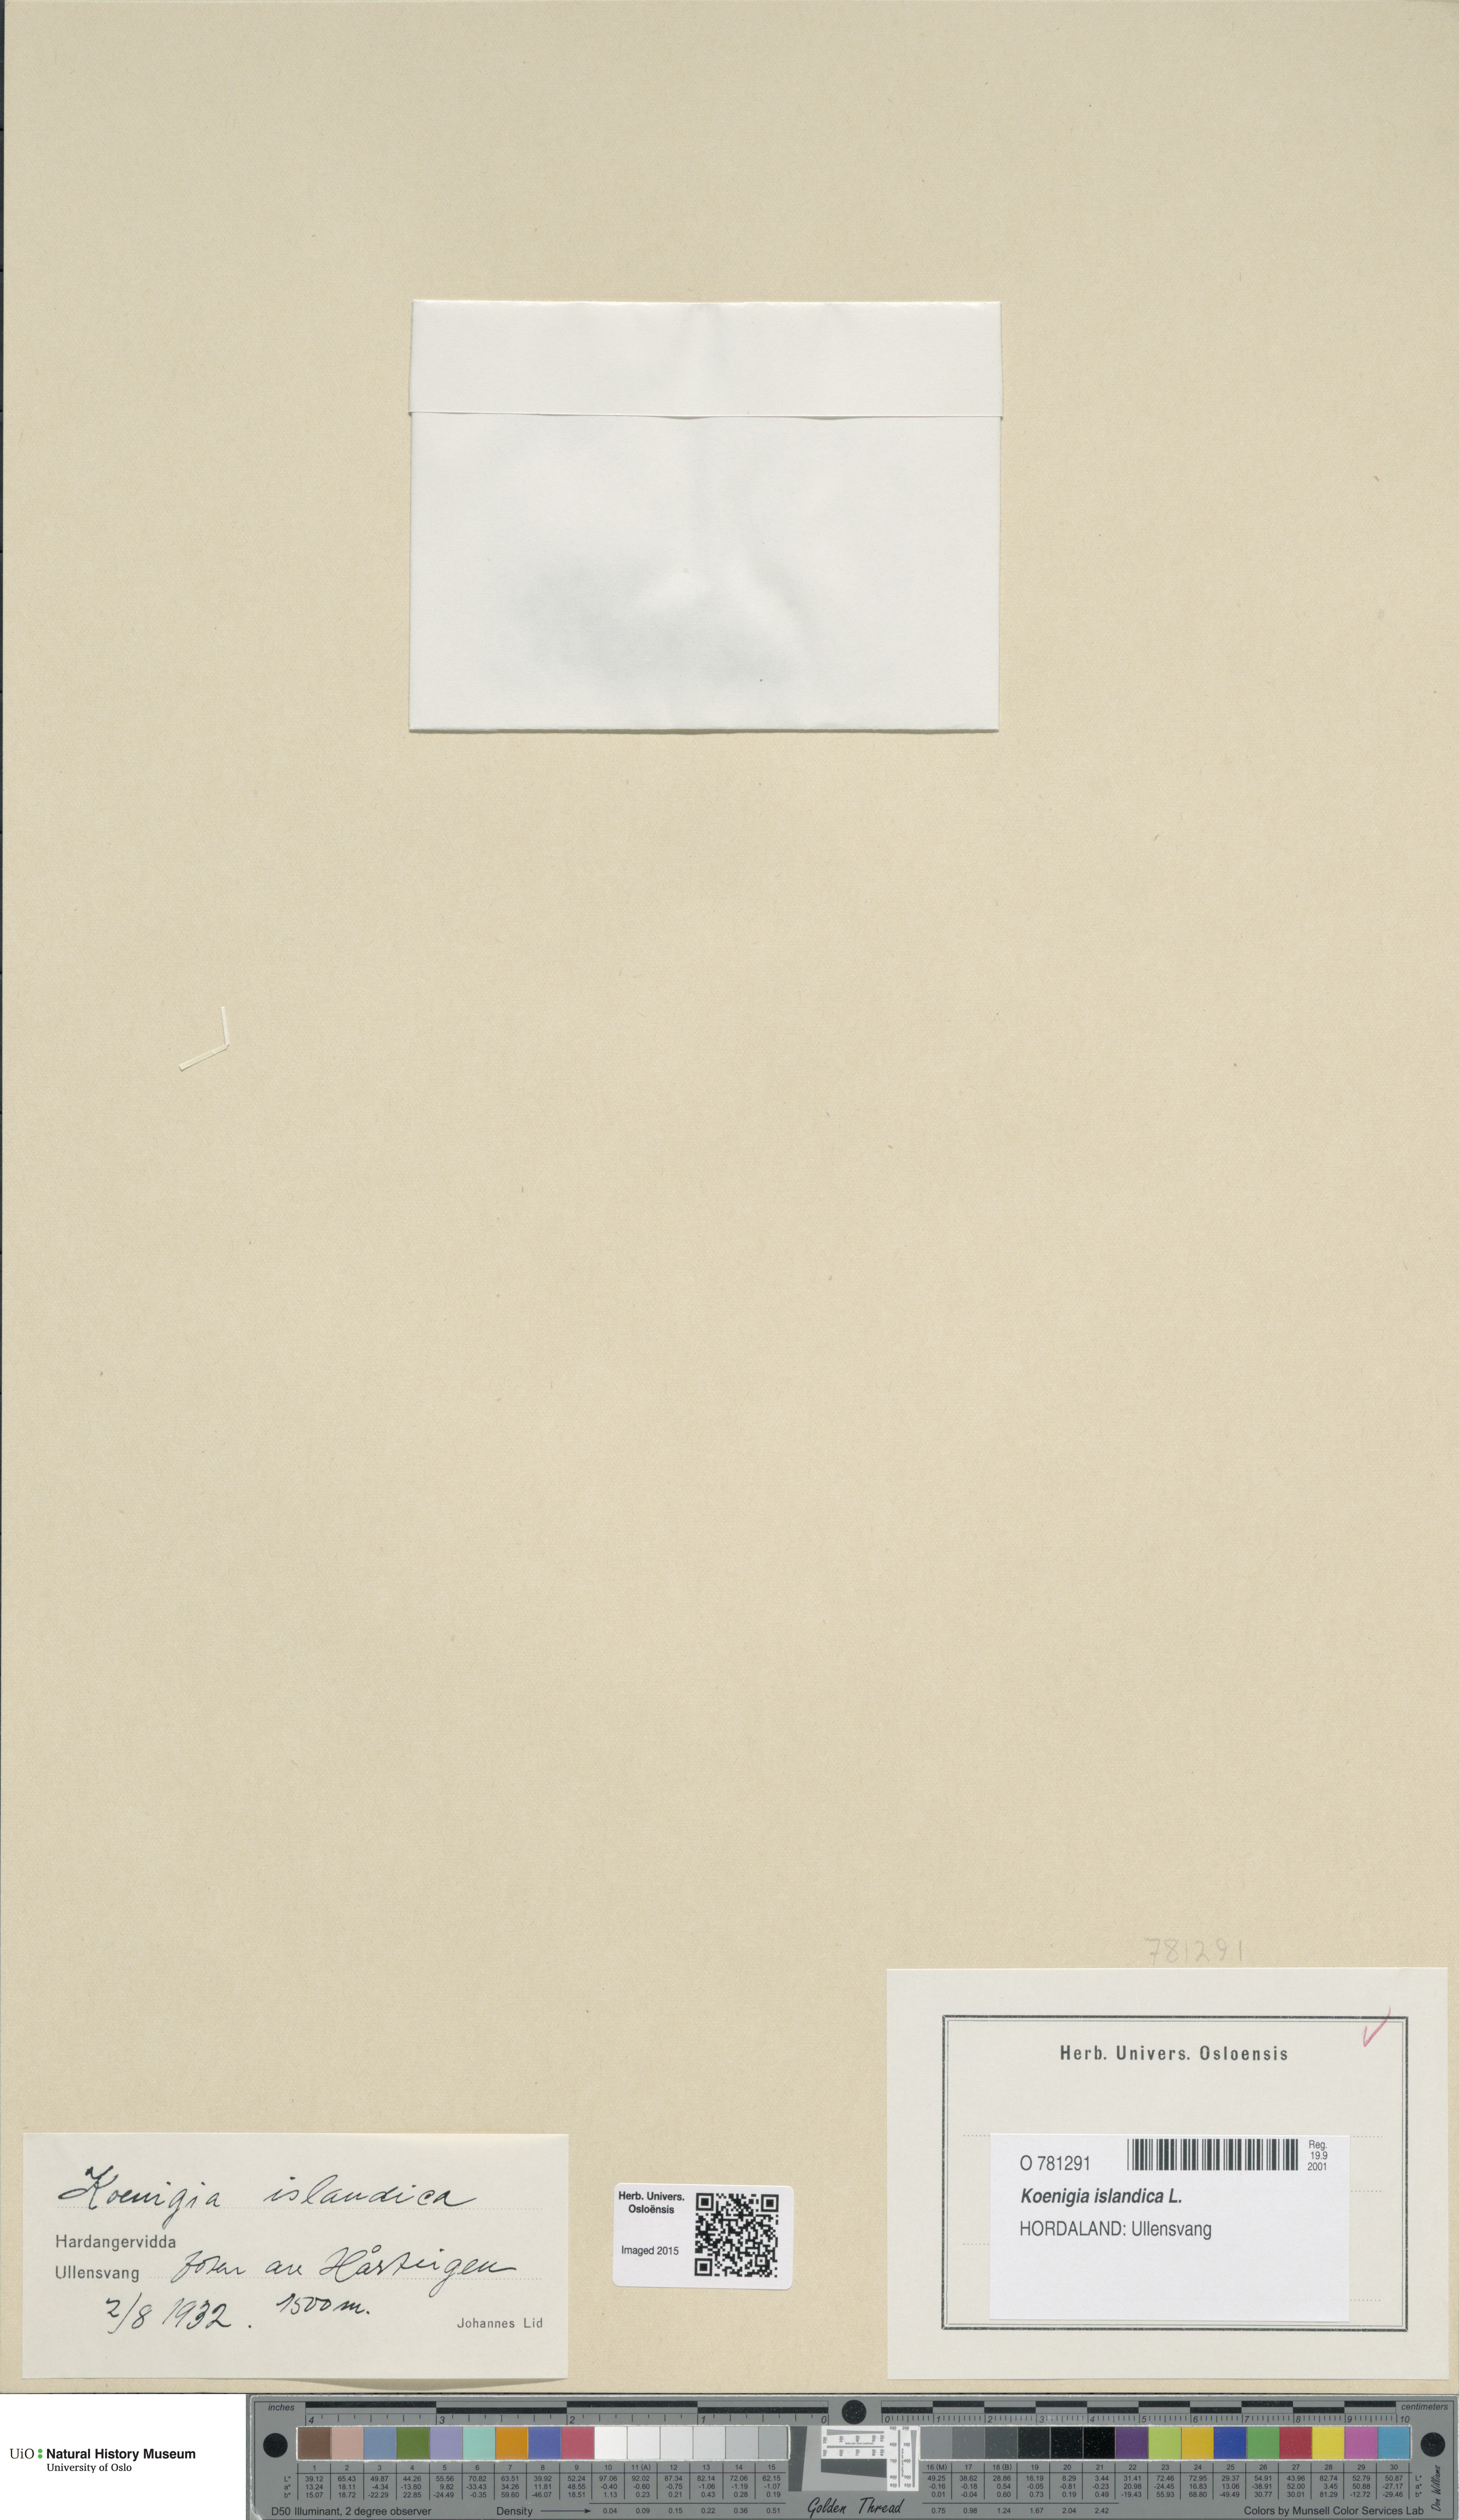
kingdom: Plantae
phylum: Tracheophyta
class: Magnoliopsida
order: Caryophyllales
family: Polygonaceae
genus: Koenigia
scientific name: Koenigia islandica
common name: Iceland-purslane
